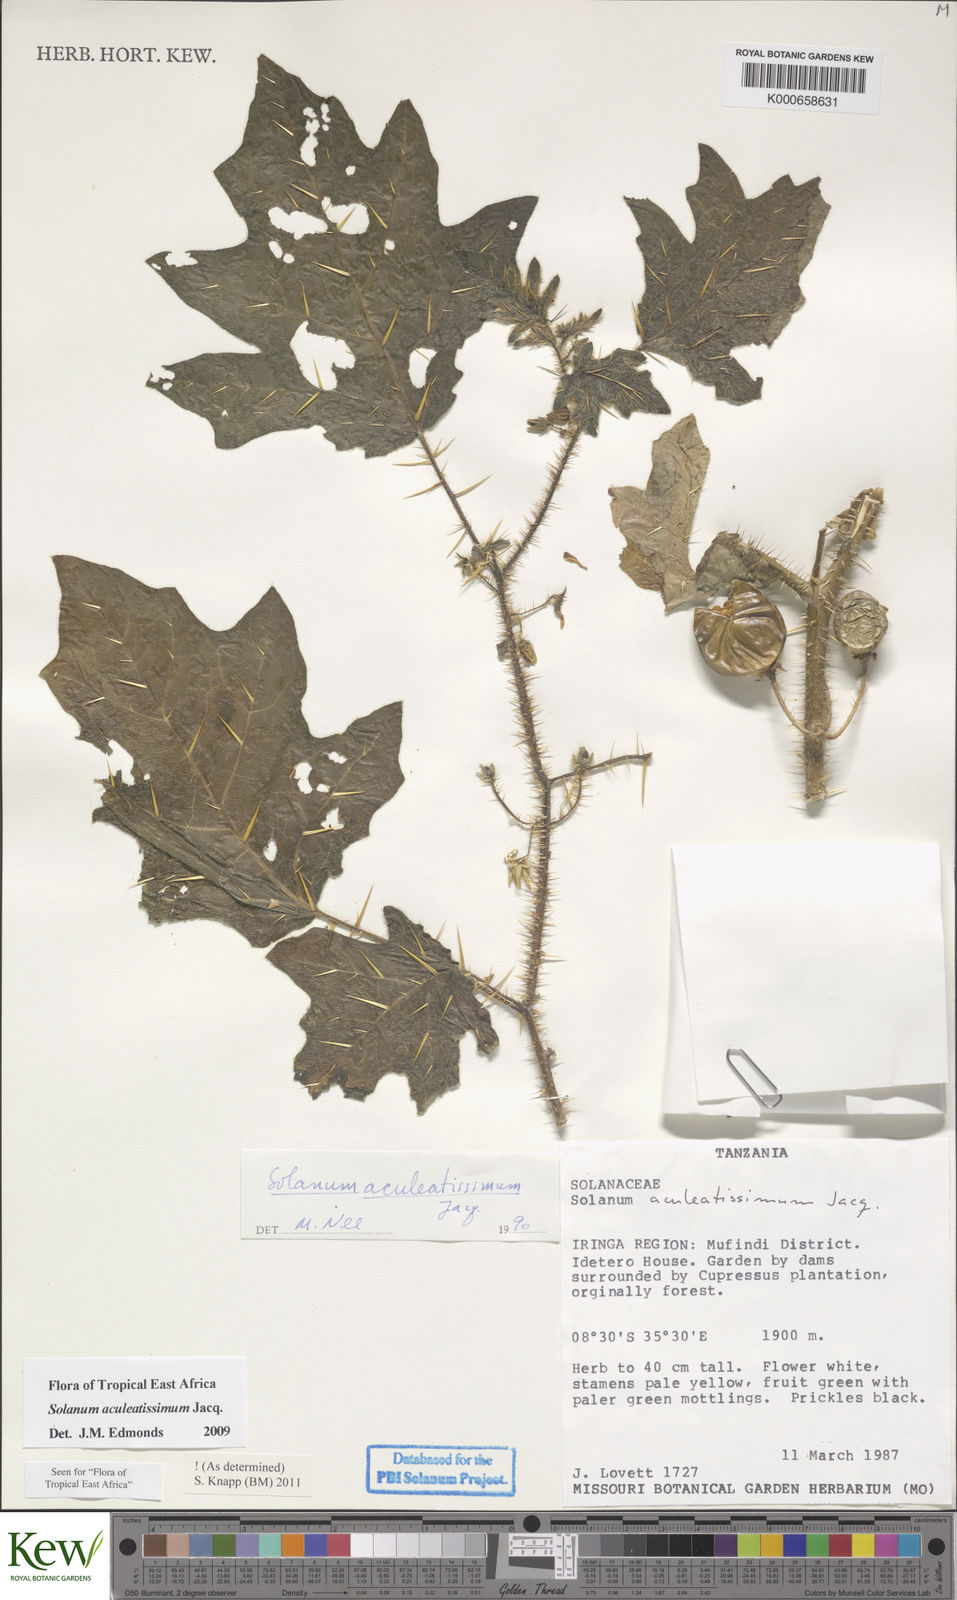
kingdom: Plantae
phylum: Tracheophyta
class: Magnoliopsida
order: Solanales
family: Solanaceae
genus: Solanum
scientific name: Solanum aculeatissimum
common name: Dutch eggplant
